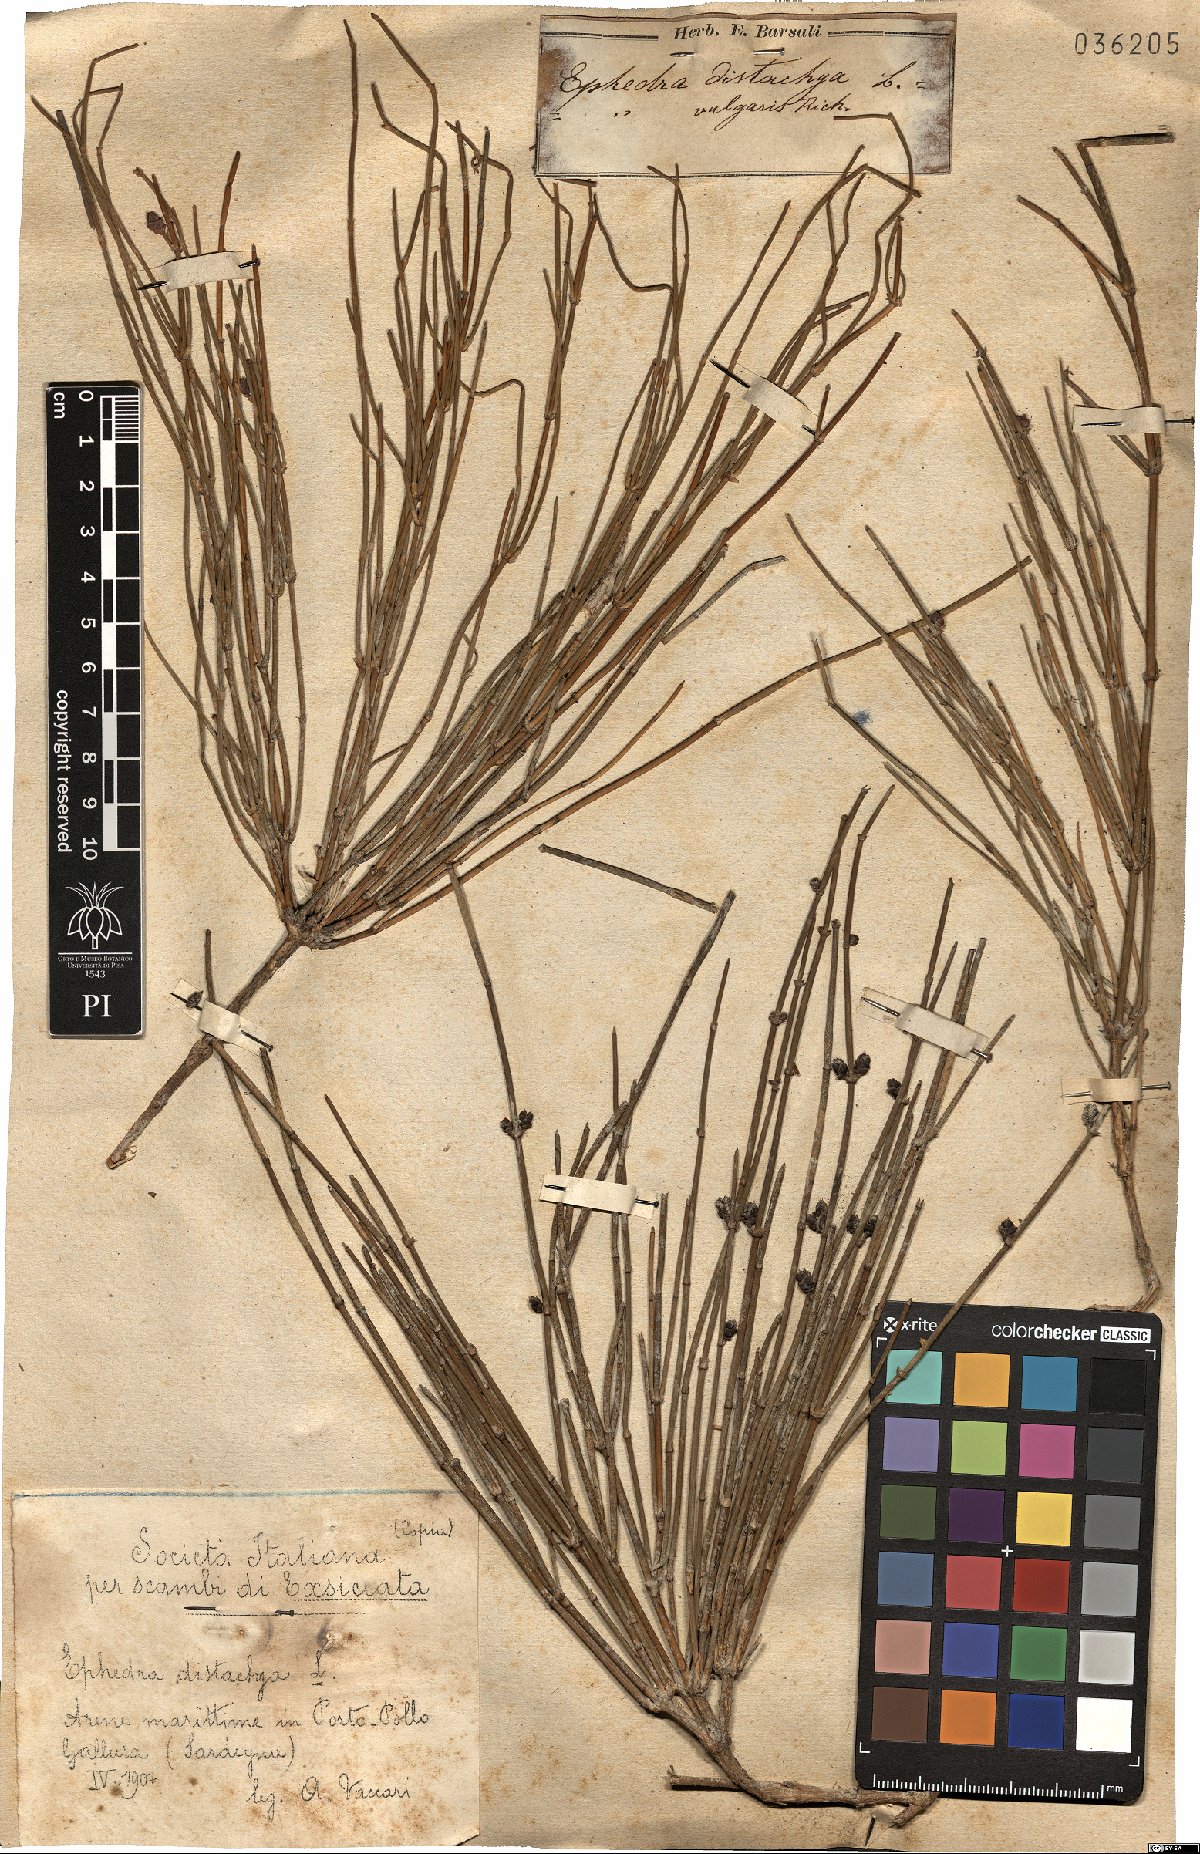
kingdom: Plantae
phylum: Tracheophyta
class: Gnetopsida
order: Ephedrales
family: Ephedraceae
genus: Ephedra
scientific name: Ephedra distachya
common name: Sea grape
